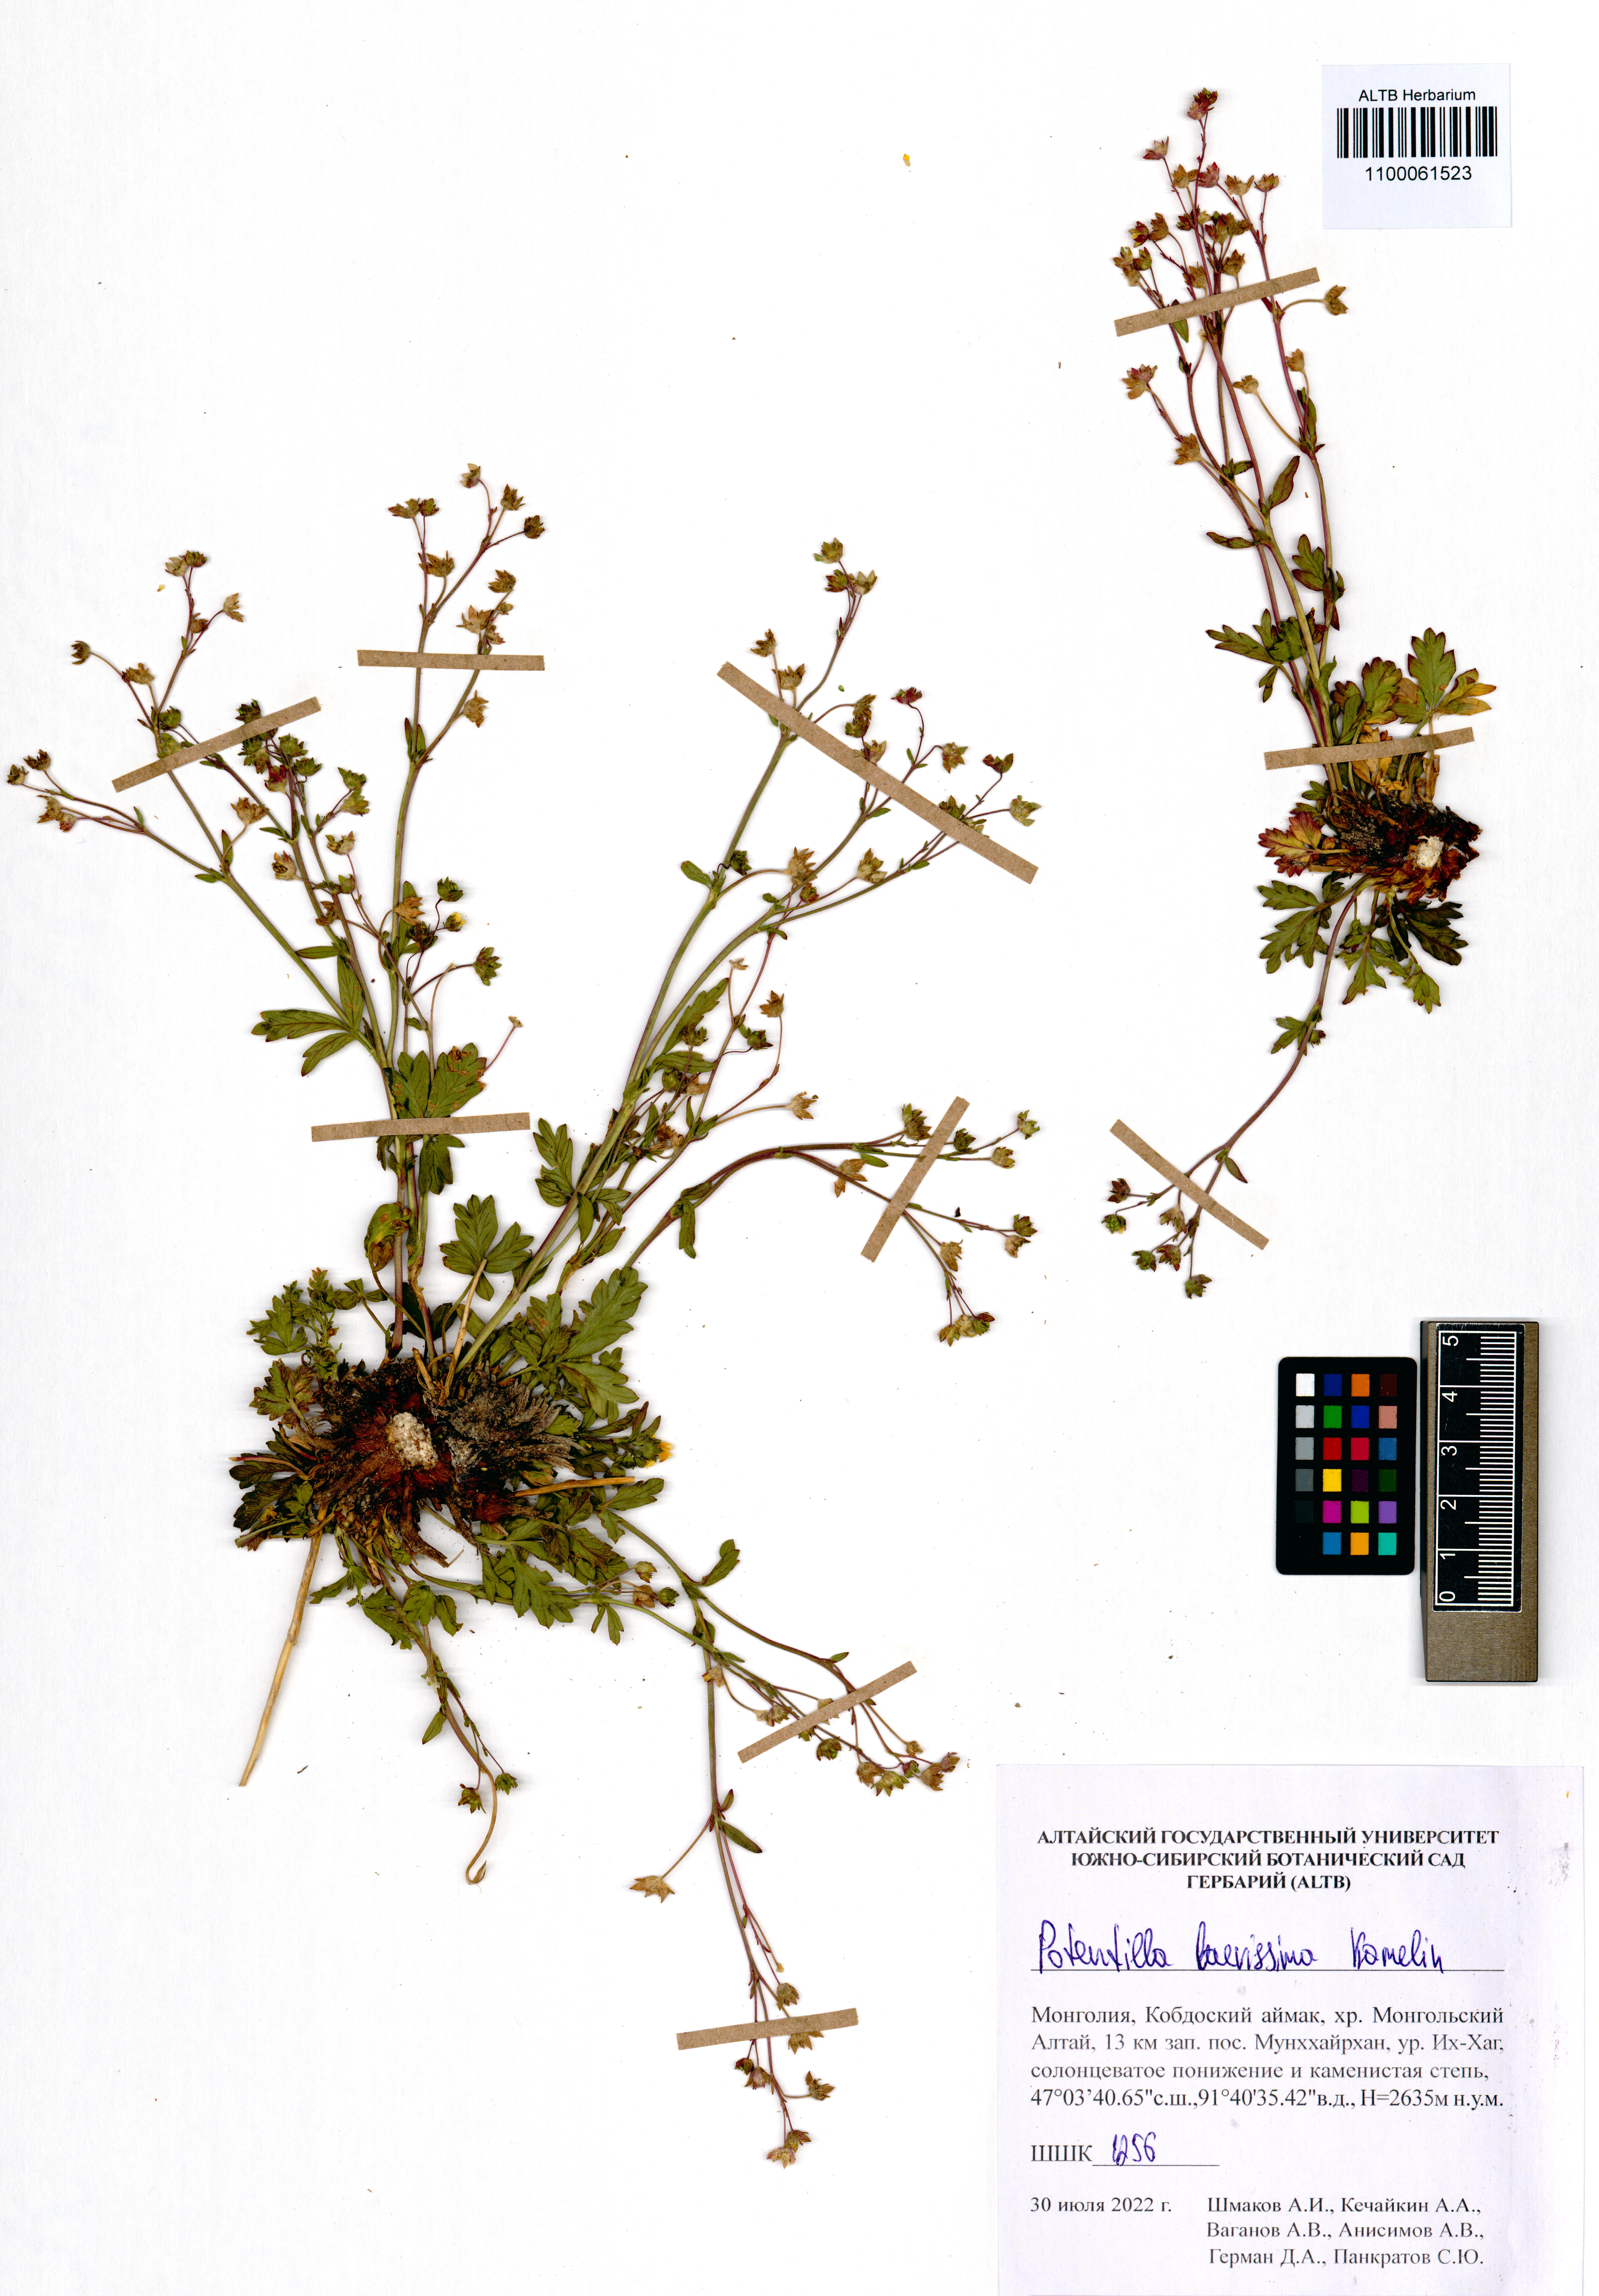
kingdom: Plantae
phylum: Tracheophyta
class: Magnoliopsida
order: Rosales
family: Rosaceae
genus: Potentilla
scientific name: Potentilla laevissima
